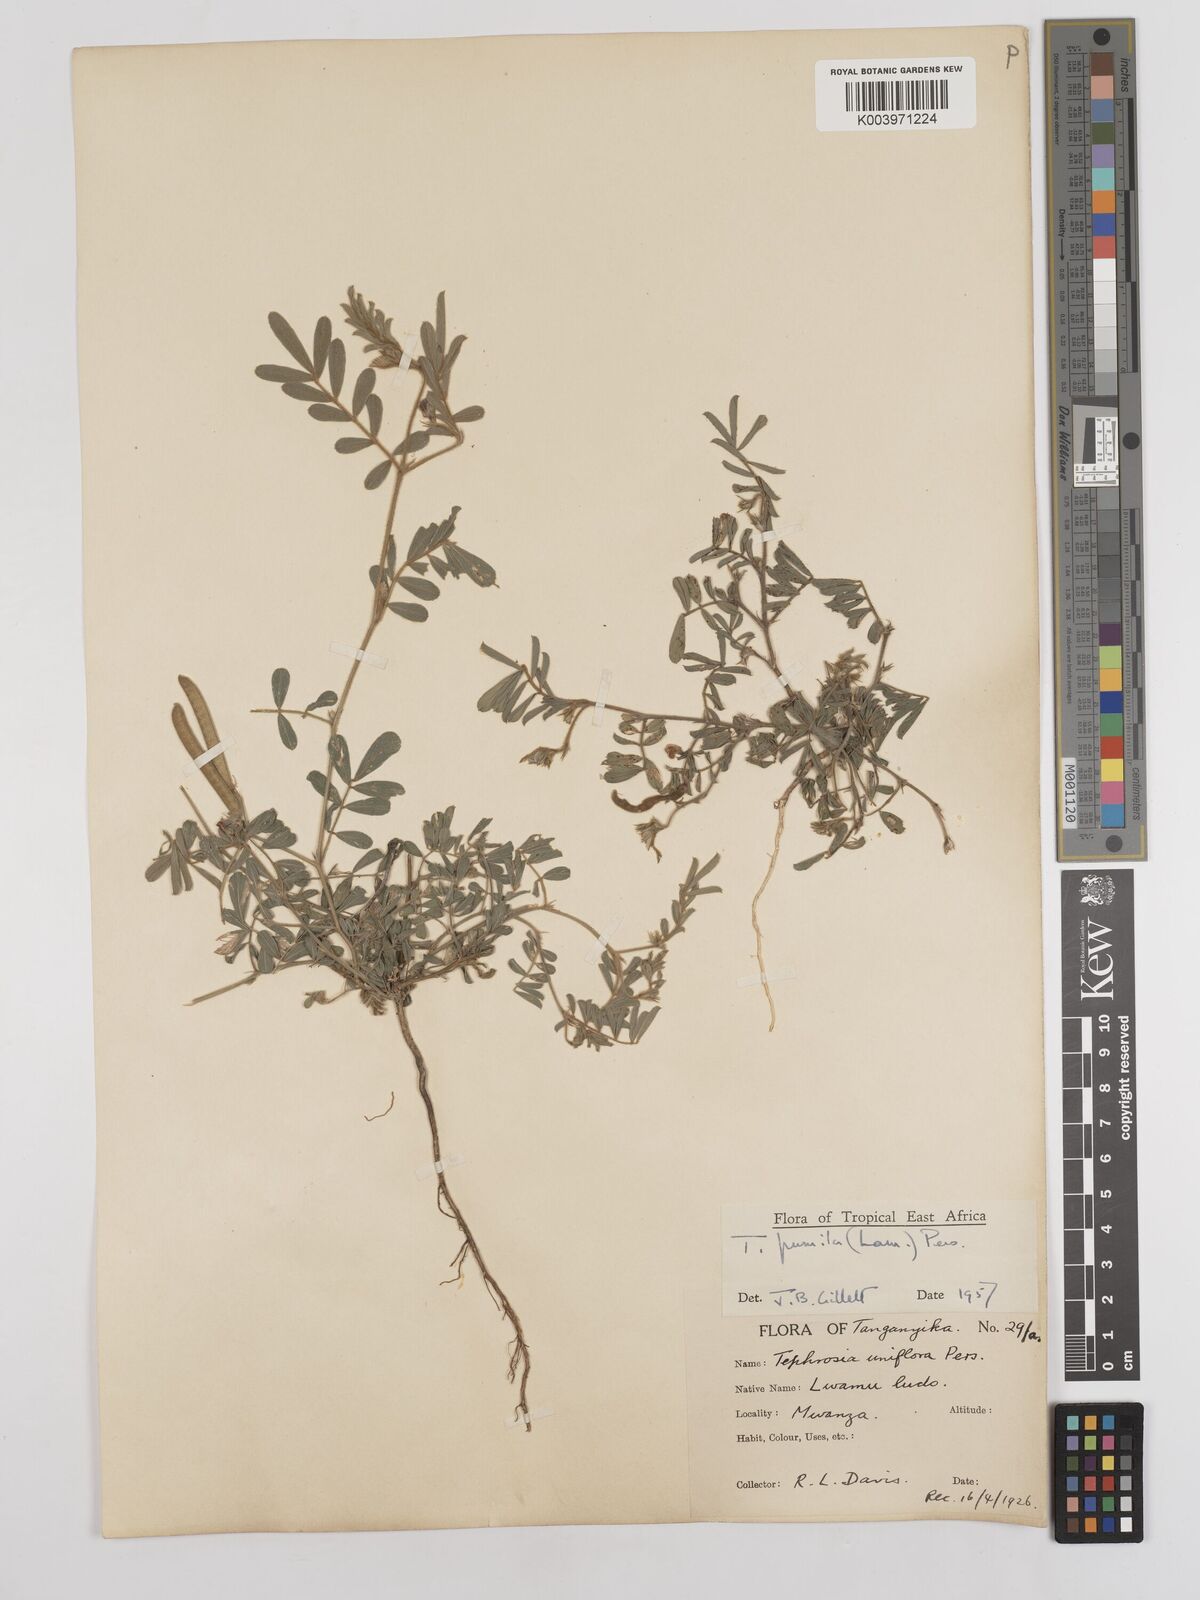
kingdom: Plantae
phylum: Tracheophyta
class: Magnoliopsida
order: Fabales
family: Fabaceae
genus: Tephrosia
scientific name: Tephrosia pumila
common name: Indigo sauvage
